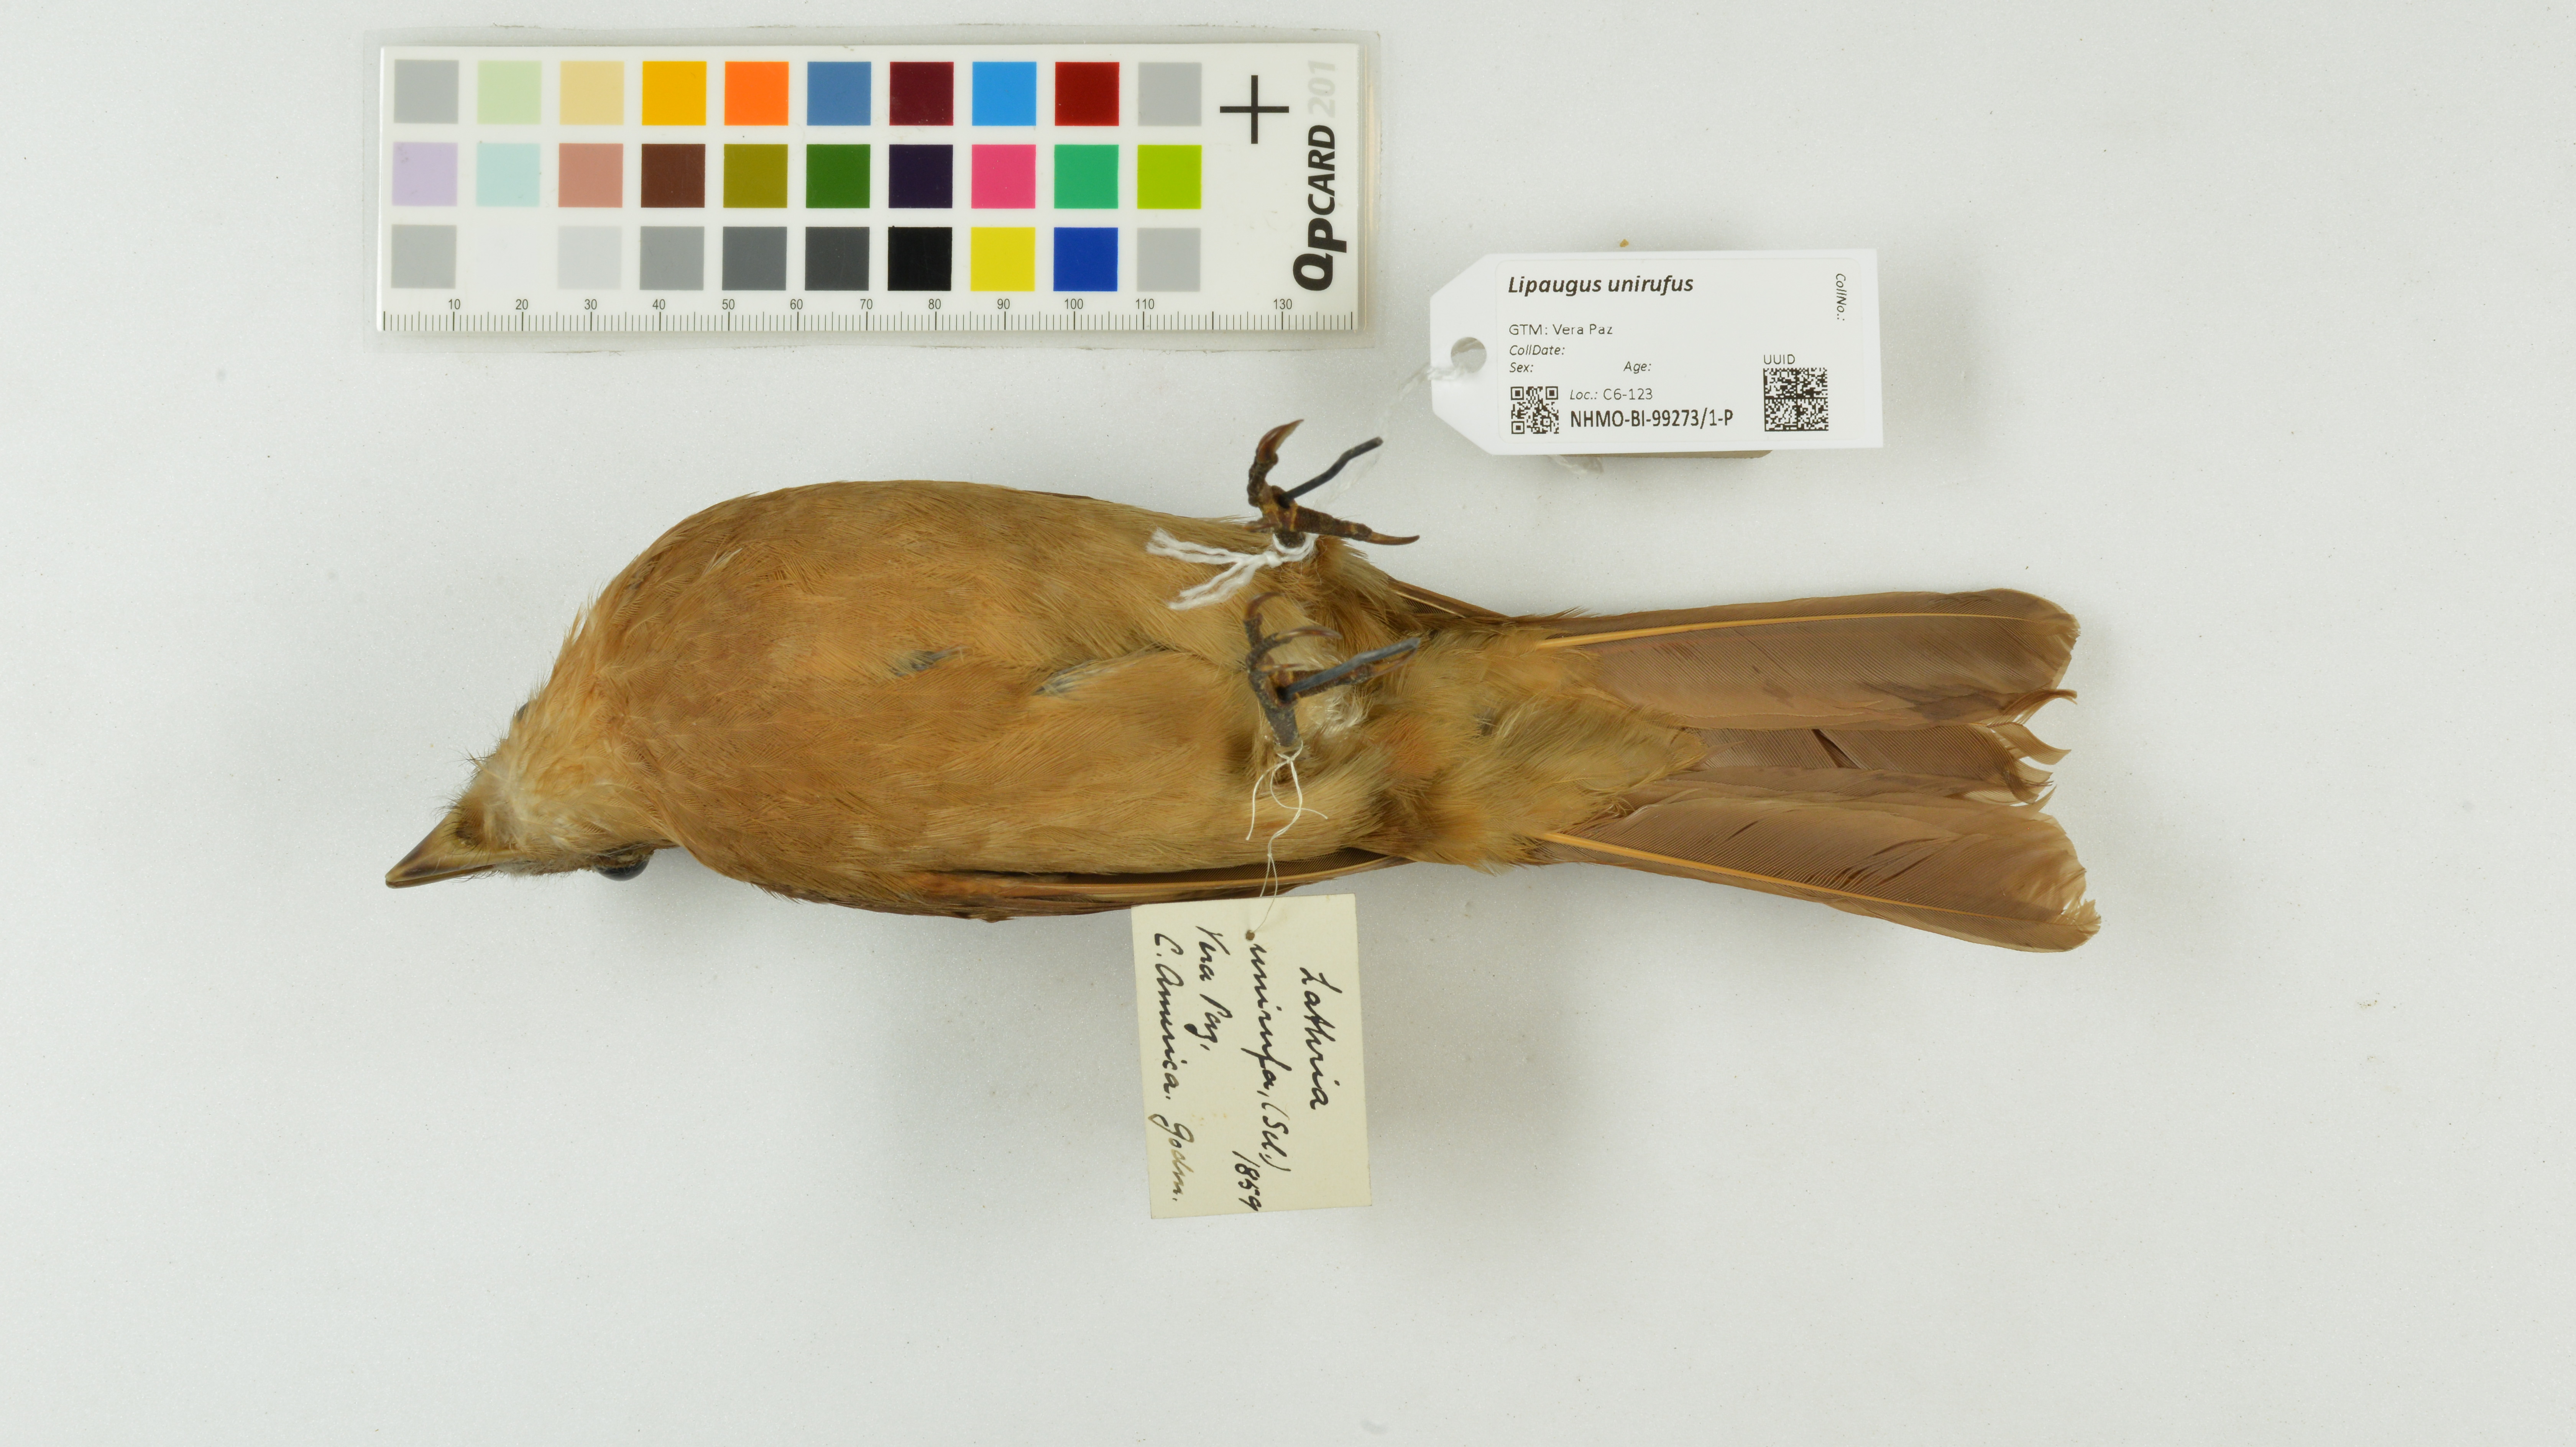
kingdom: Animalia
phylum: Chordata
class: Aves
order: Passeriformes
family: Cotingidae
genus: Lipaugus
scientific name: Lipaugus unirufus
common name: Rufous piha
